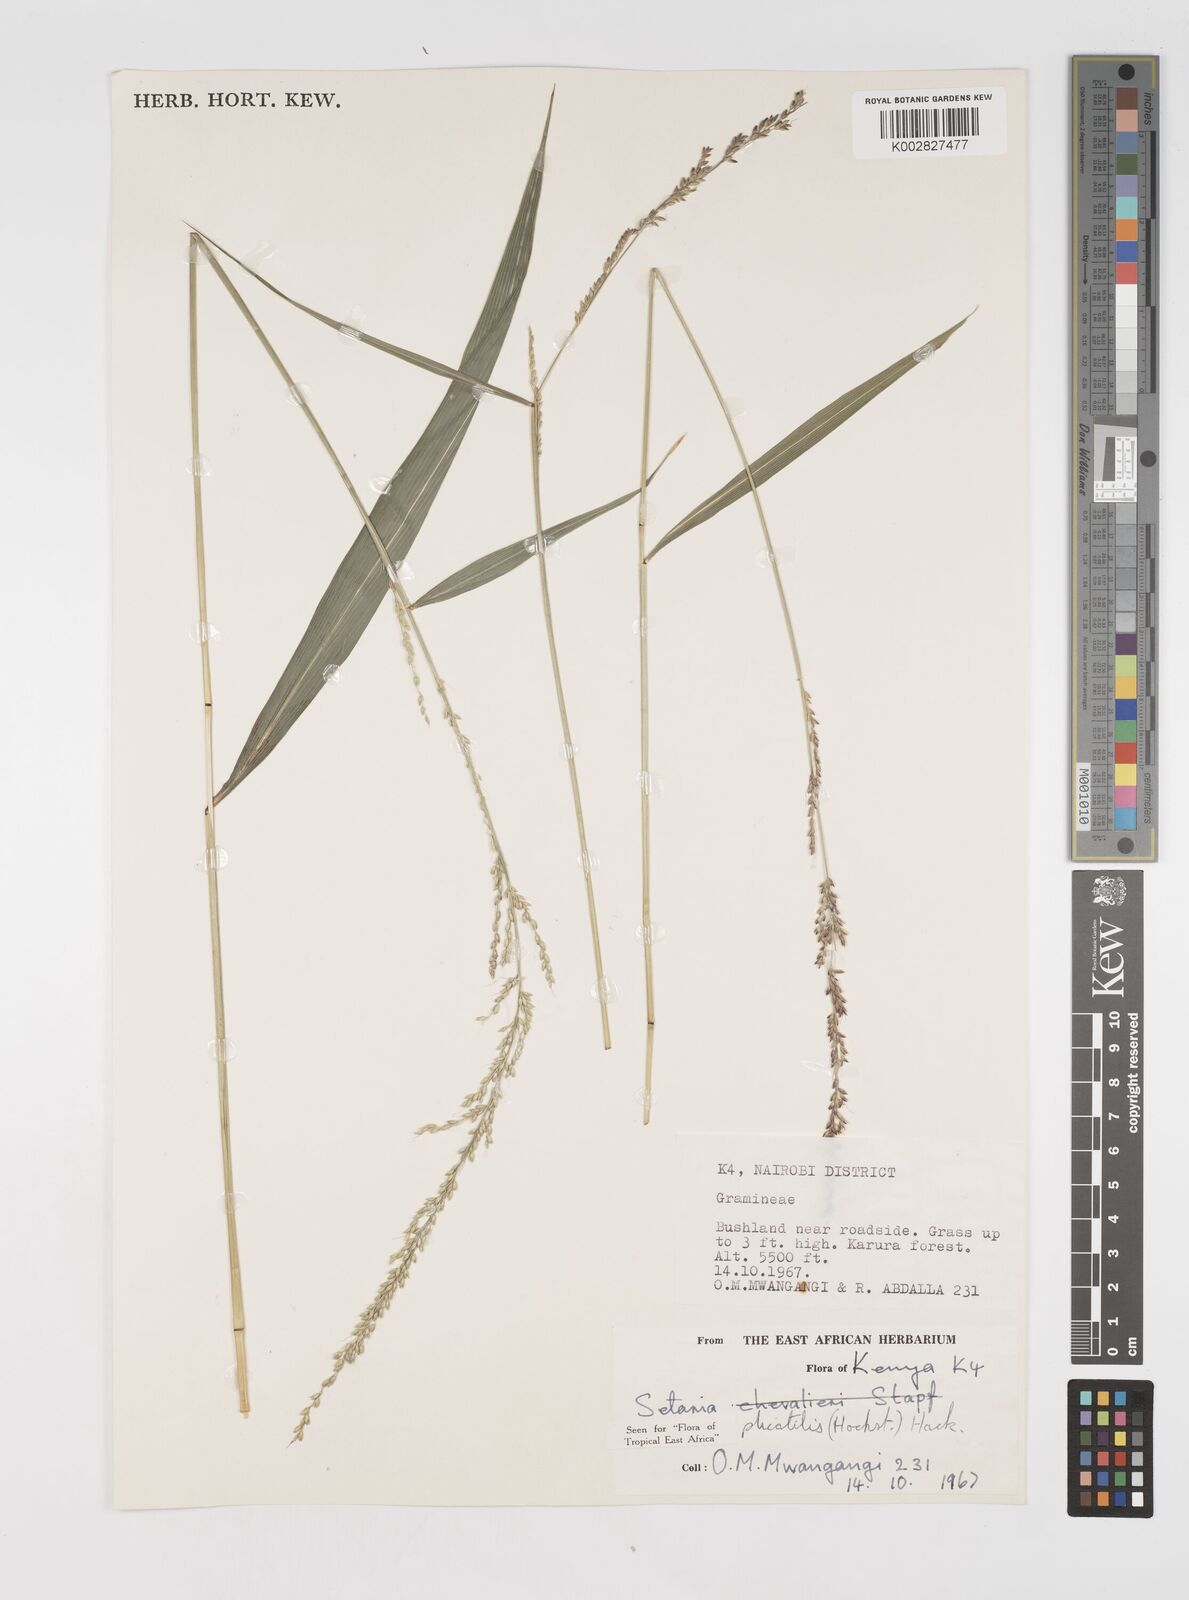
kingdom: Plantae
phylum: Tracheophyta
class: Liliopsida
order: Poales
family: Poaceae
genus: Setaria
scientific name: Setaria megaphylla
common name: Bigleaf bristlegrass
